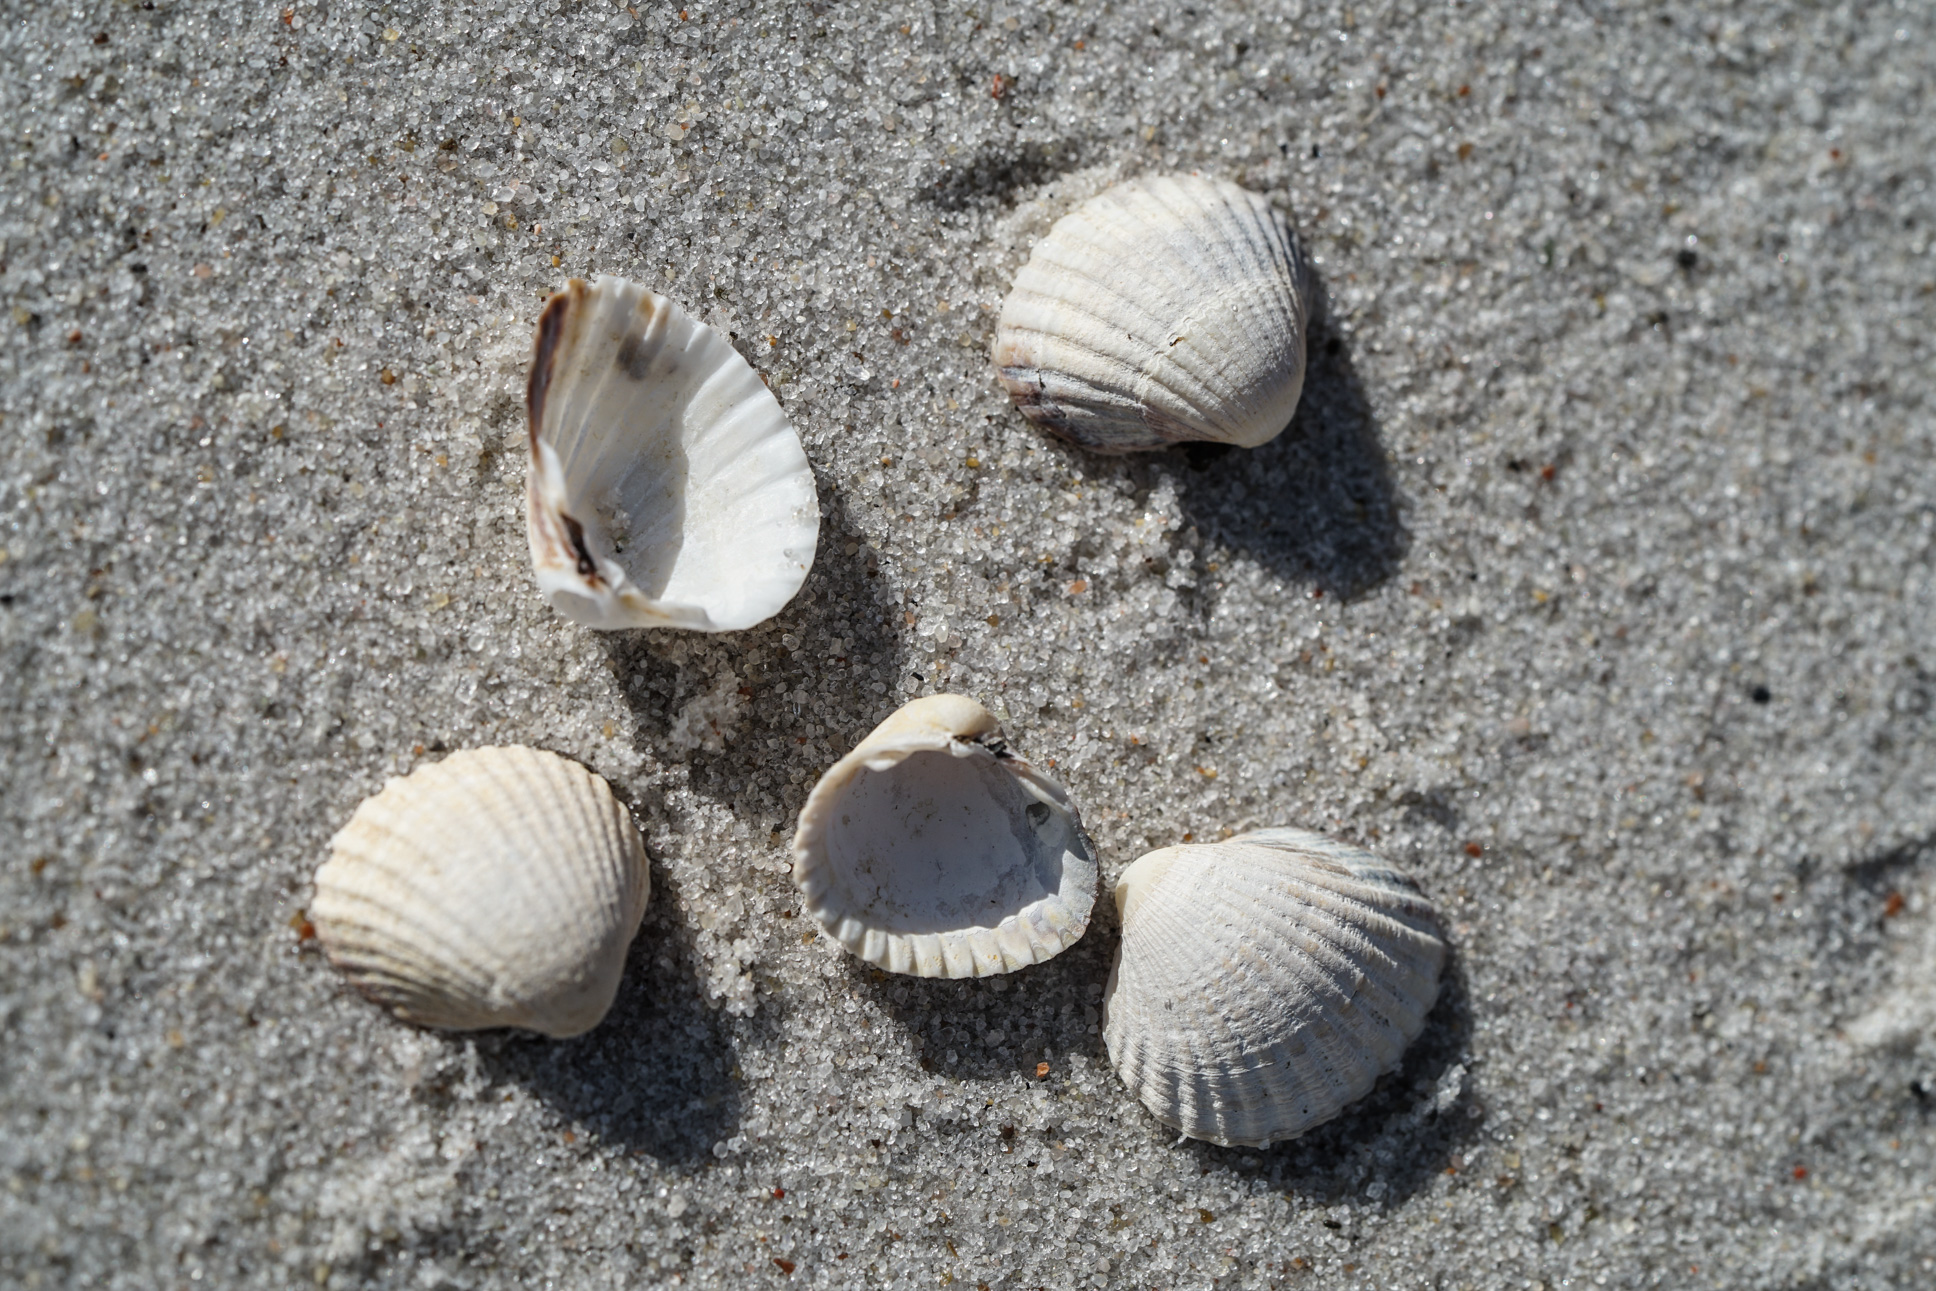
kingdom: Animalia
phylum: Mollusca
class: Bivalvia
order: Cardiida
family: Cardiidae
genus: Cerastoderma
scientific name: Cerastoderma glaucum
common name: Lagoon cockle
